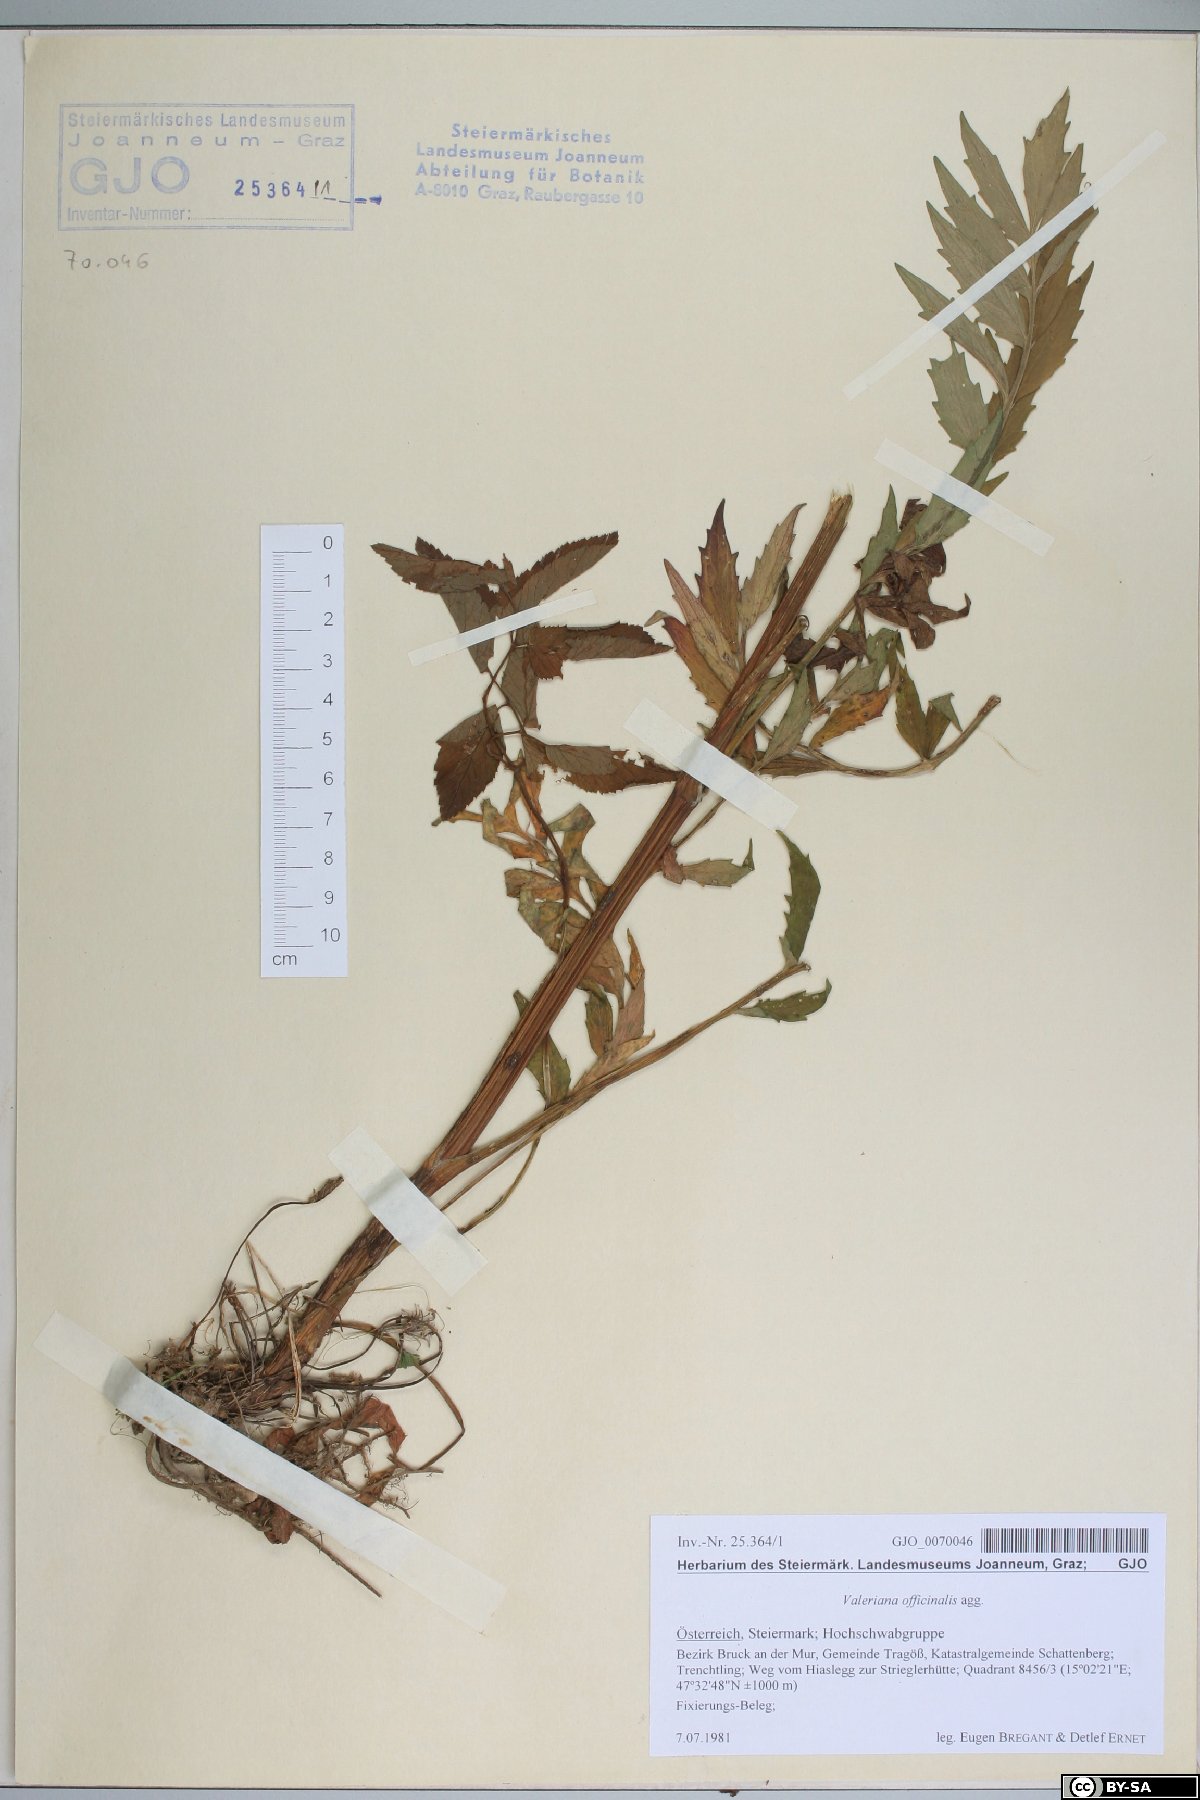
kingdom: Plantae
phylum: Tracheophyta
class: Magnoliopsida
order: Dipsacales
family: Caprifoliaceae
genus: Valeriana
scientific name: Valeriana officinalis
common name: Common valerian
